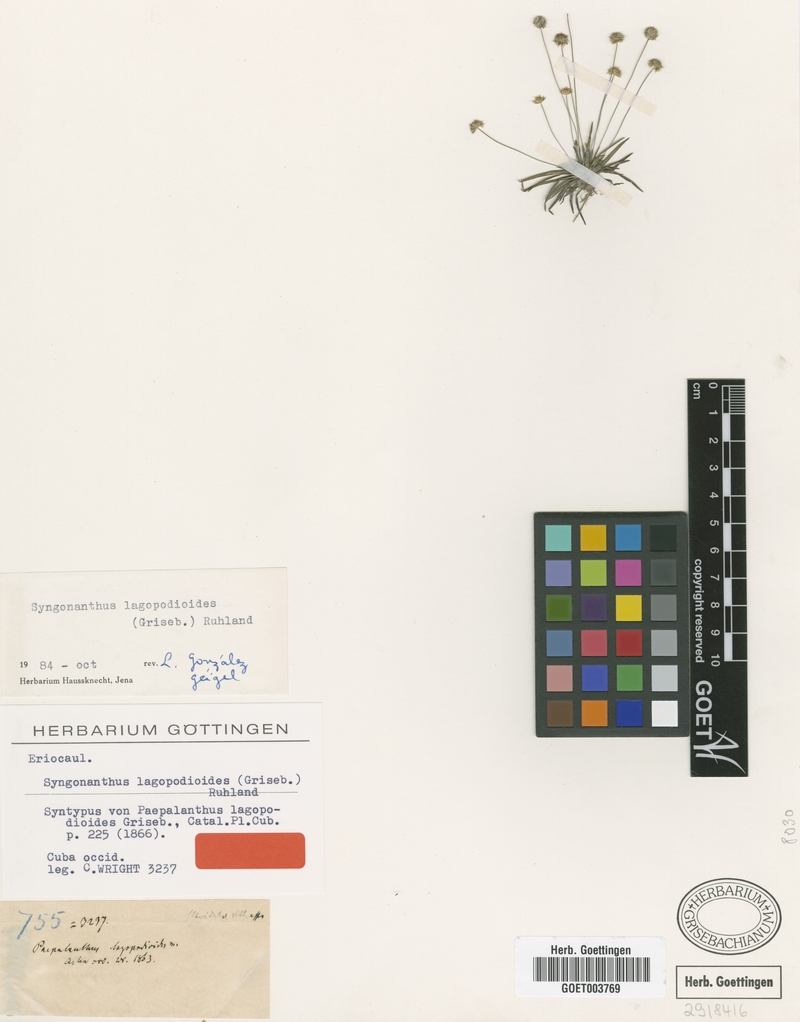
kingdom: Plantae
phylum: Tracheophyta
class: Liliopsida
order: Poales
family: Eriocaulaceae
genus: Syngonanthus
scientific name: Syngonanthus lagopodioides
